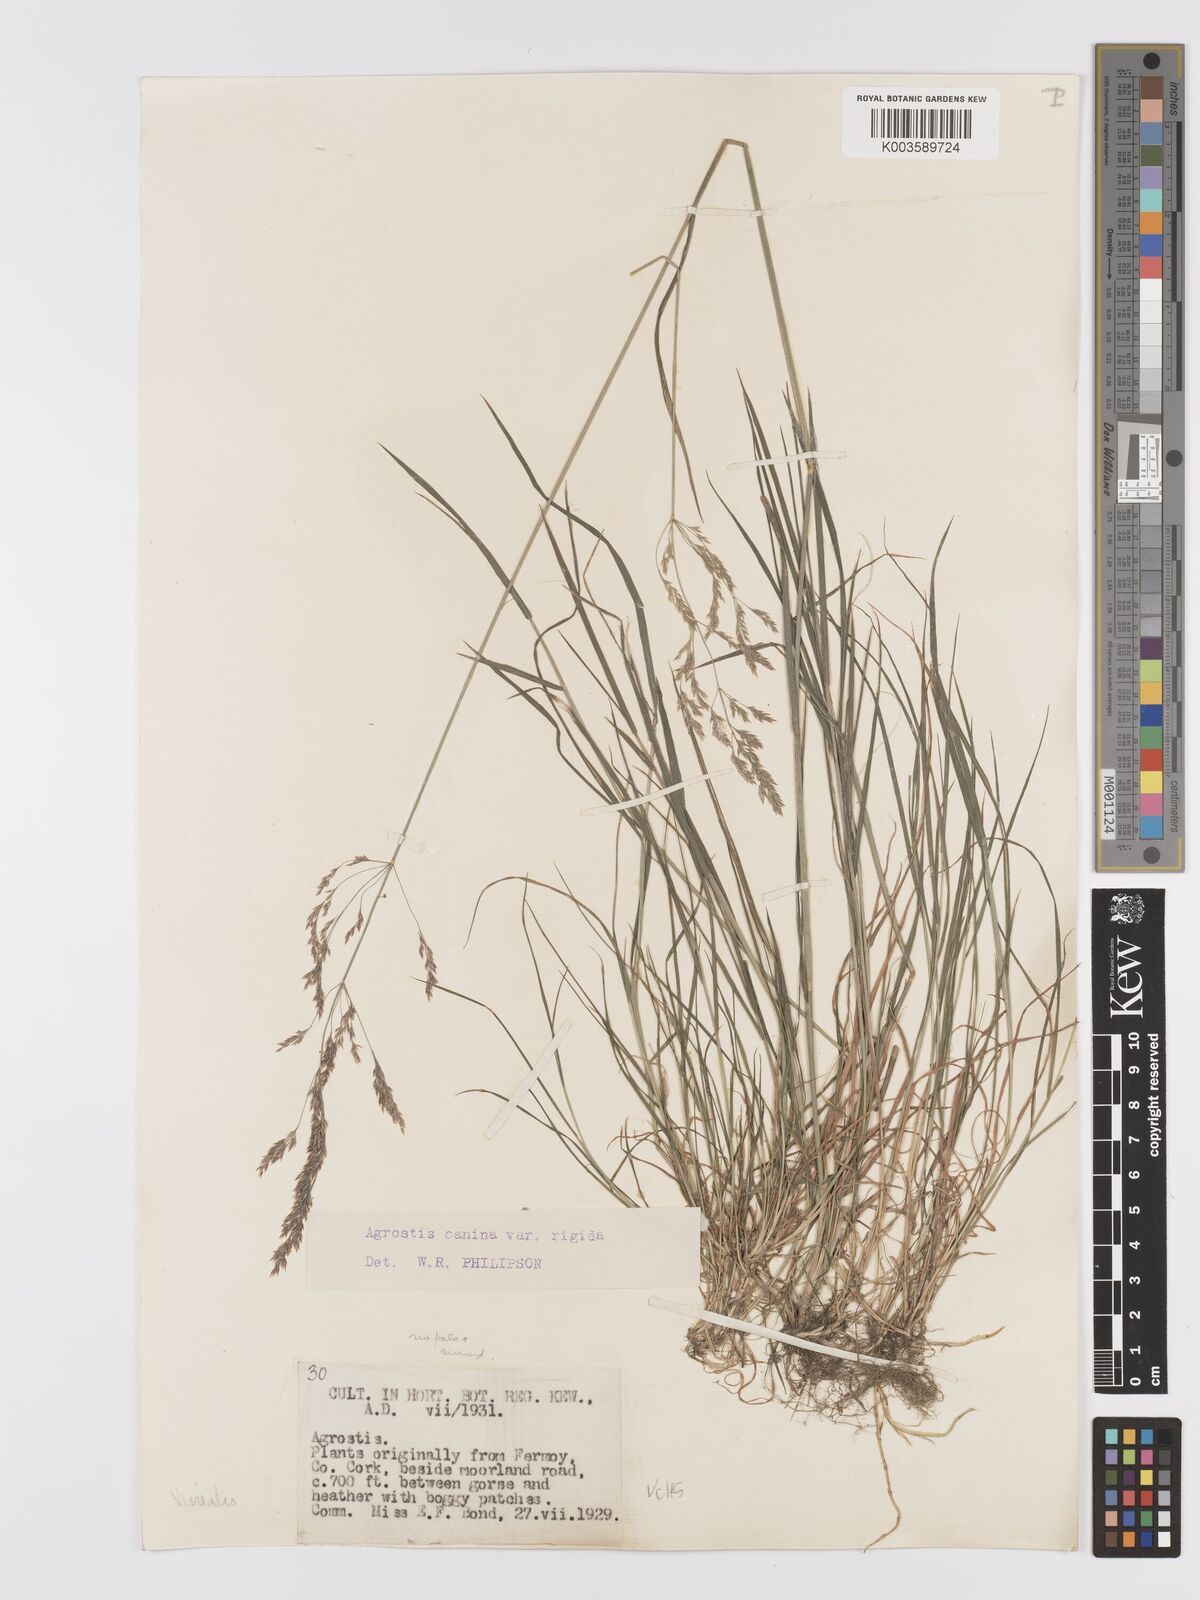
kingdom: Plantae
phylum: Tracheophyta
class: Liliopsida
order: Poales
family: Poaceae
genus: Agrostis
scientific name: Agrostis
